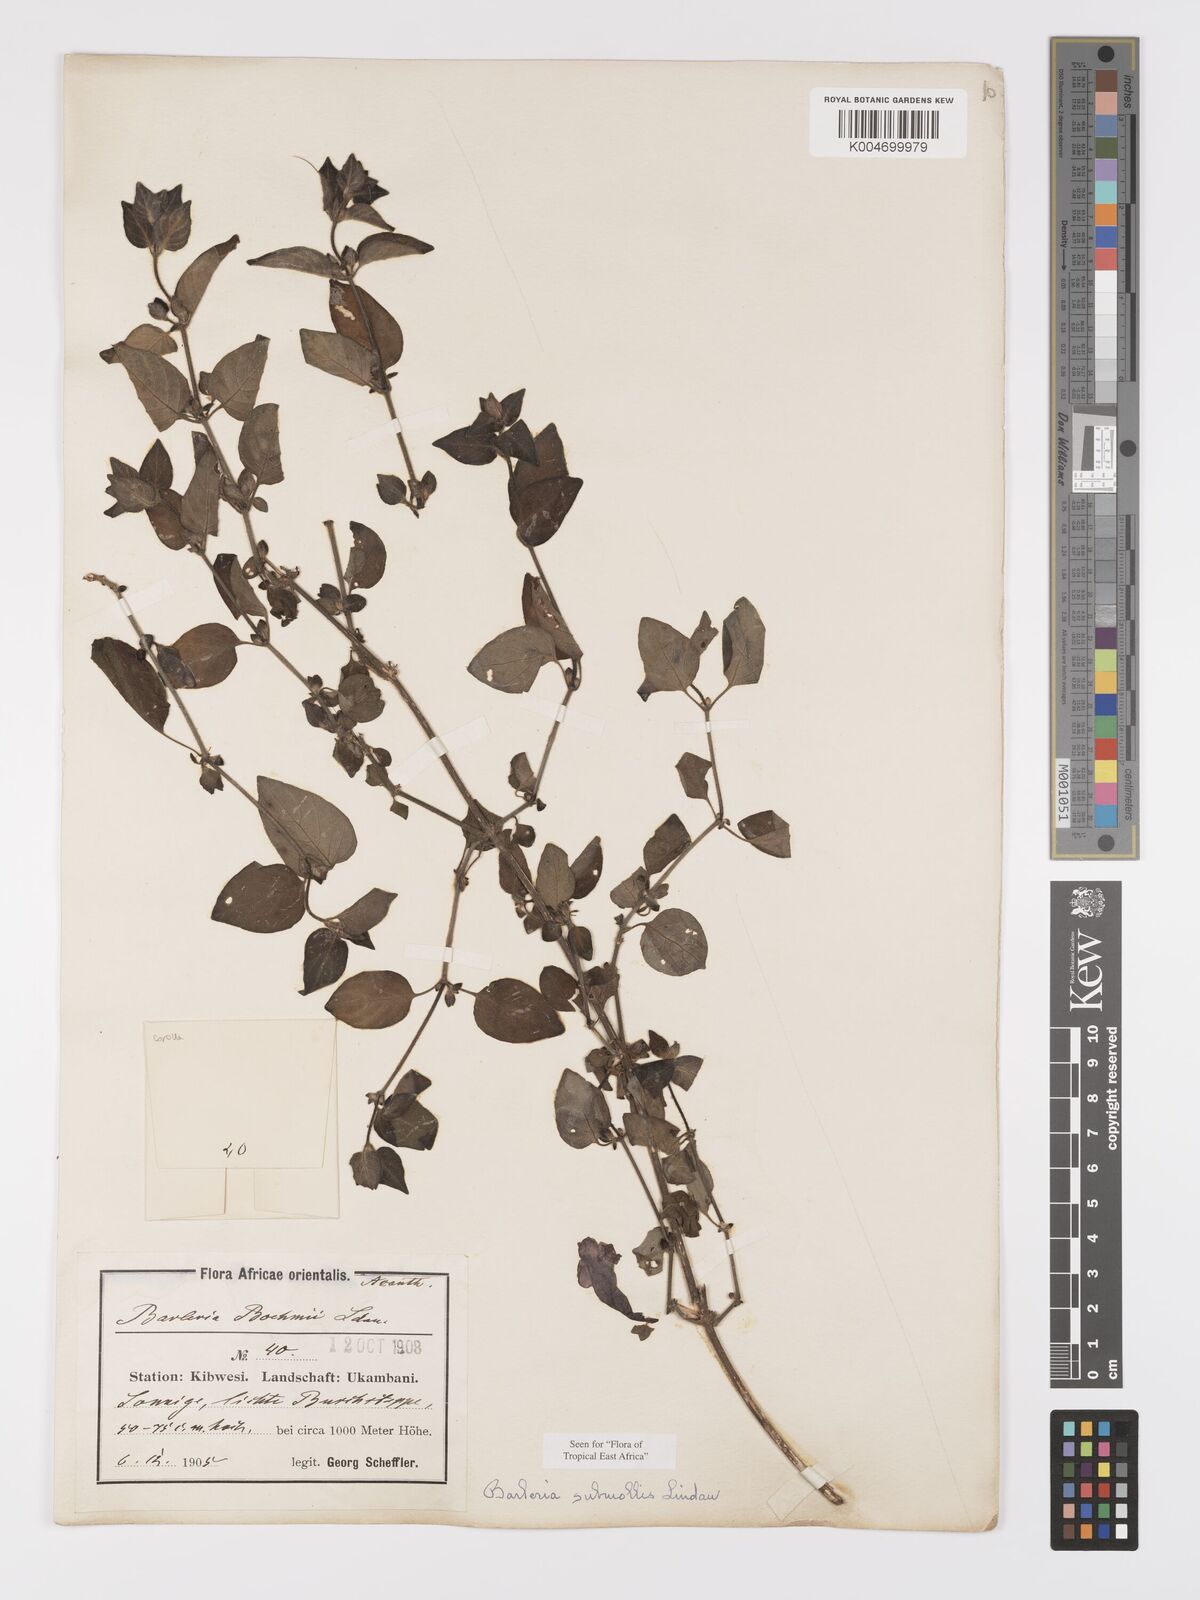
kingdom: Plantae
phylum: Tracheophyta
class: Magnoliopsida
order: Lamiales
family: Acanthaceae
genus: Barleria
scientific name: Barleria submollis
